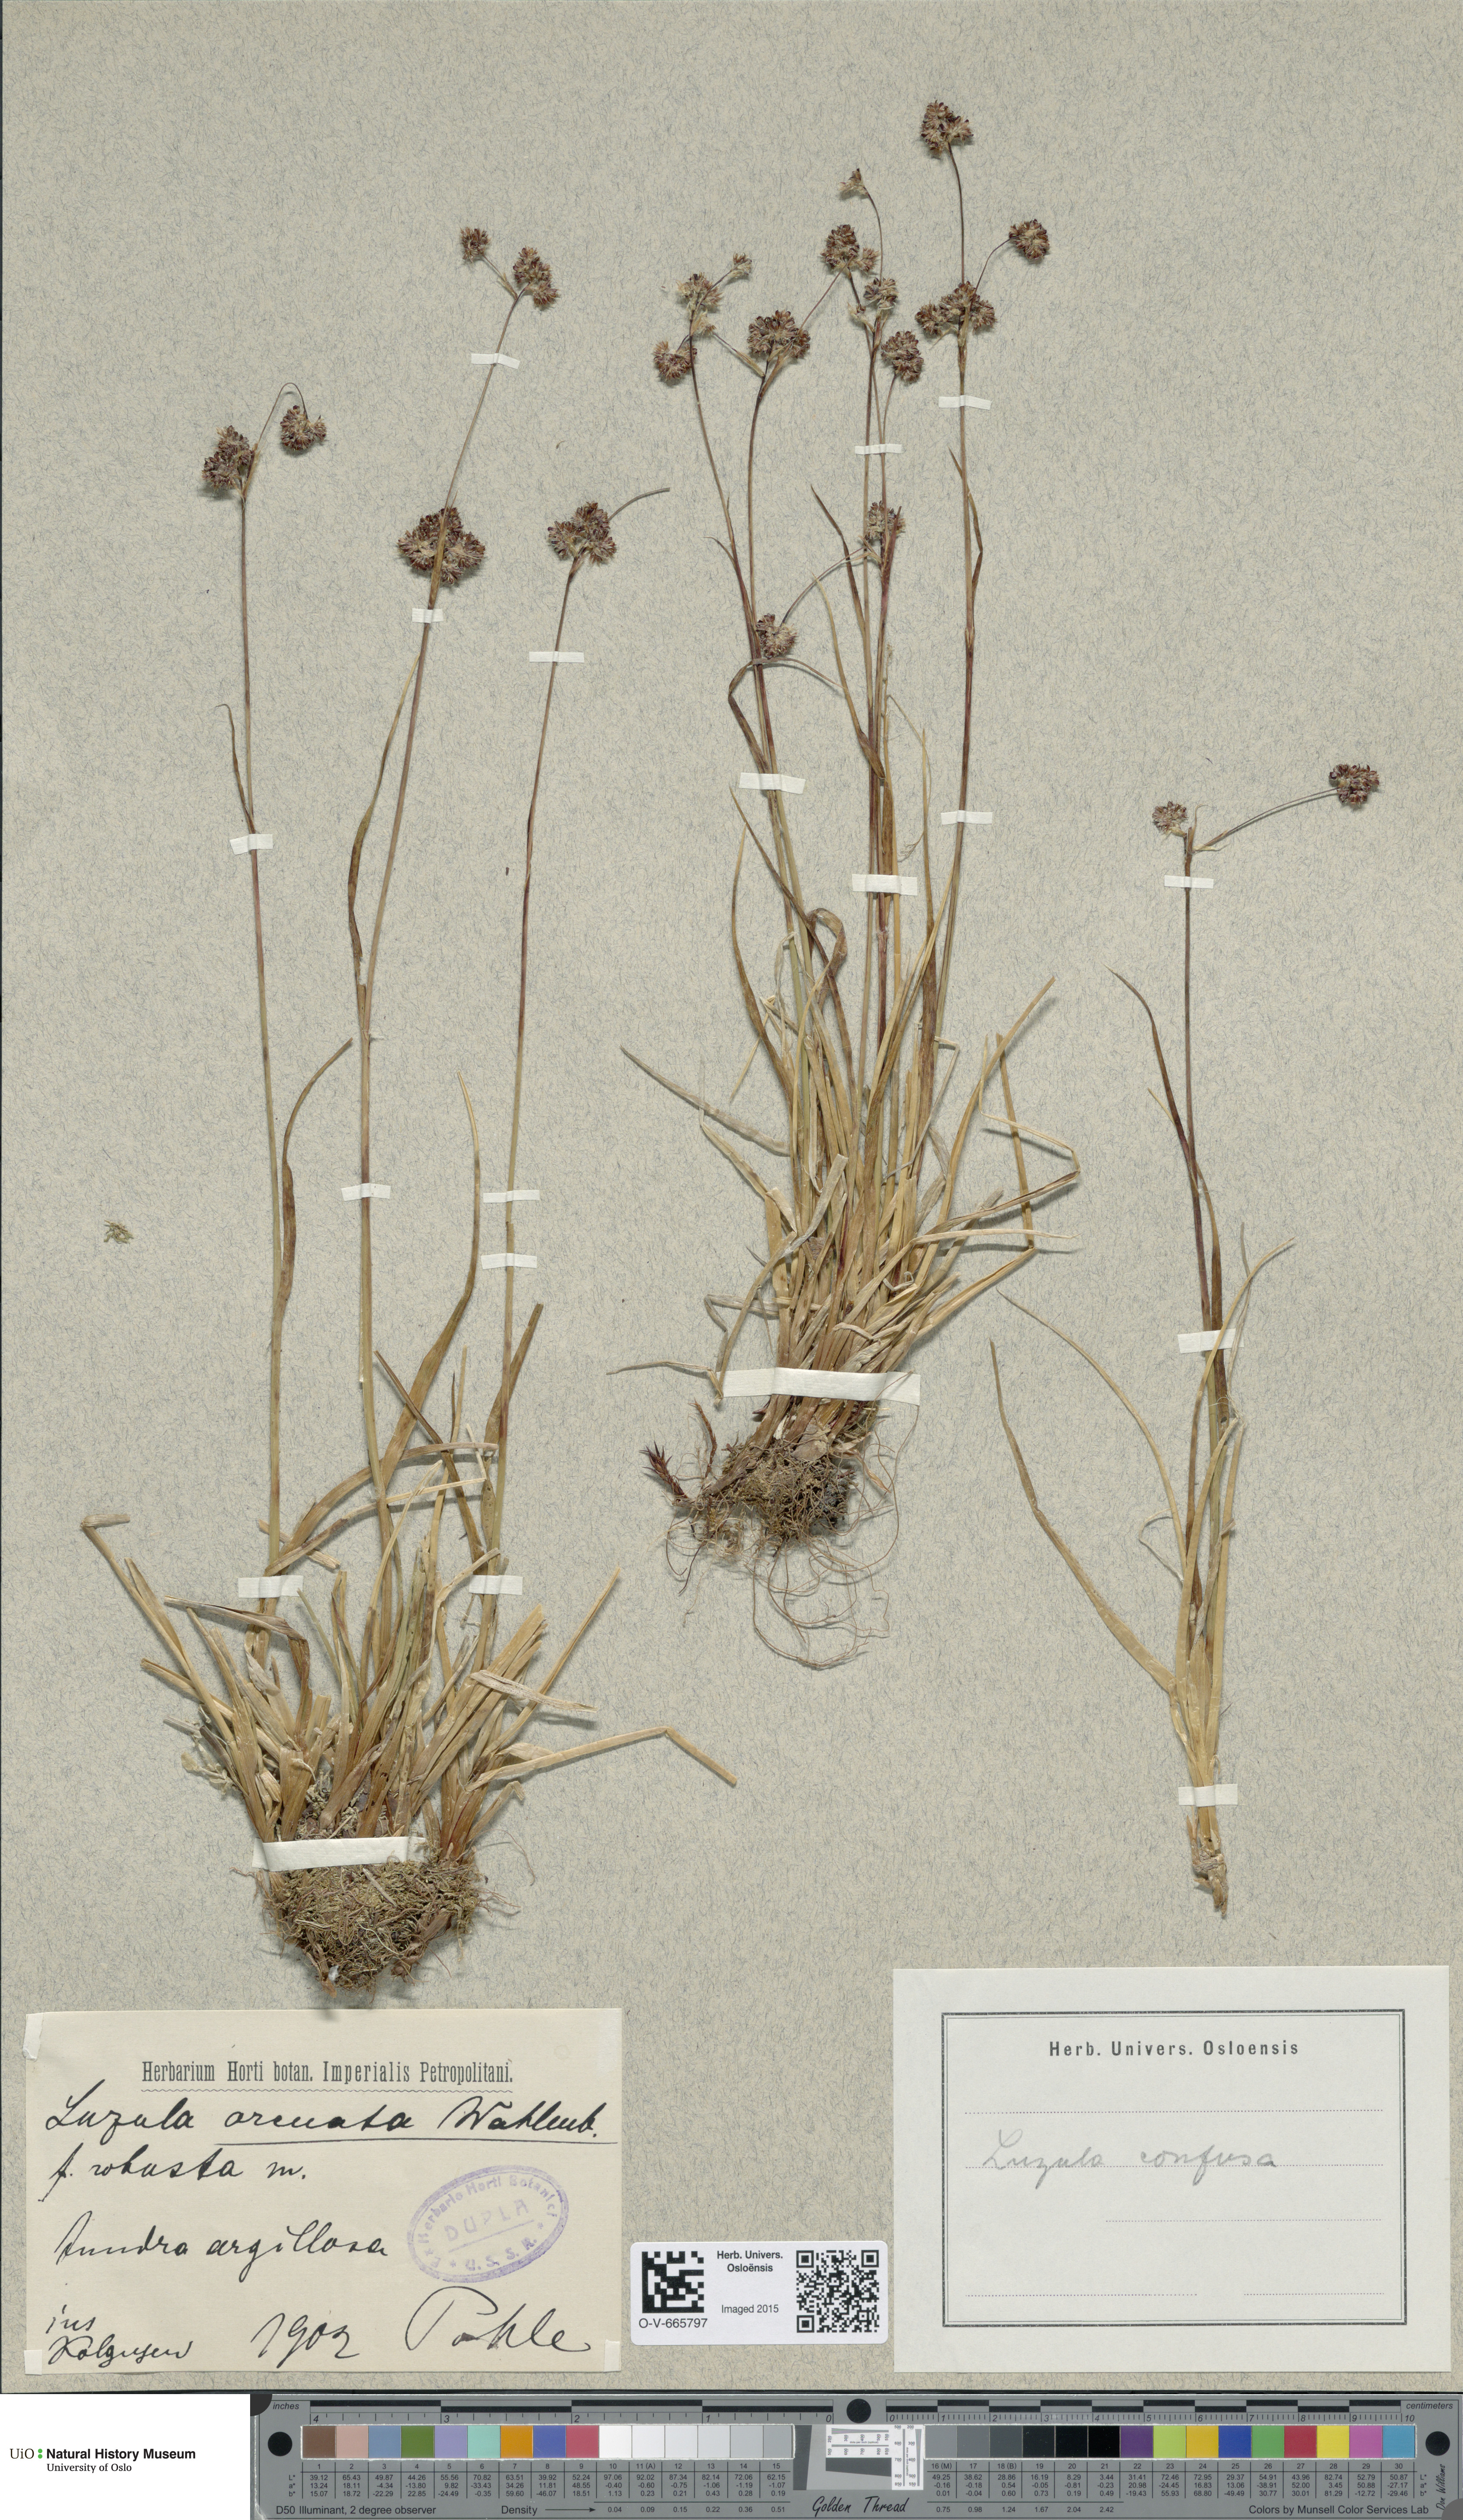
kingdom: Plantae
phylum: Tracheophyta
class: Liliopsida
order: Poales
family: Juncaceae
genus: Luzula
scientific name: Luzula confusa
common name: Northern wood rush
